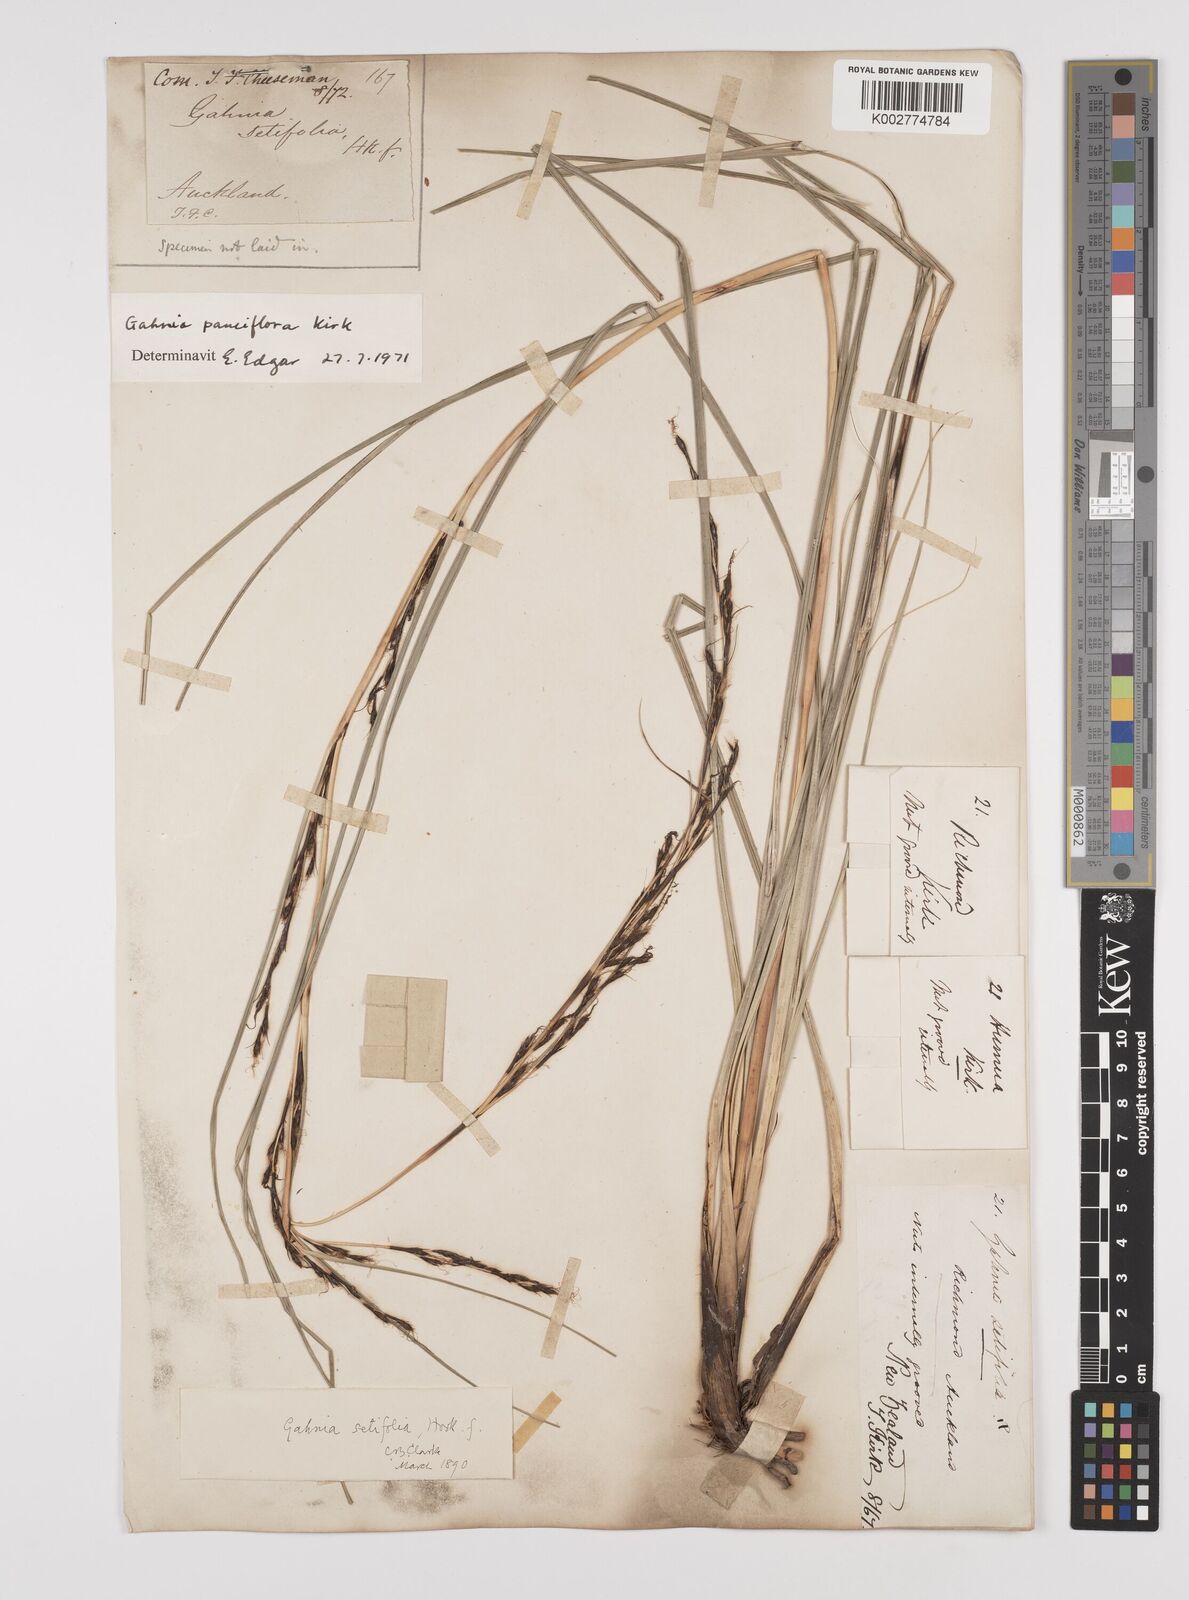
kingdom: Plantae
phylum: Tracheophyta
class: Liliopsida
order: Poales
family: Cyperaceae
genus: Gahnia
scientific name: Gahnia pauciflora
